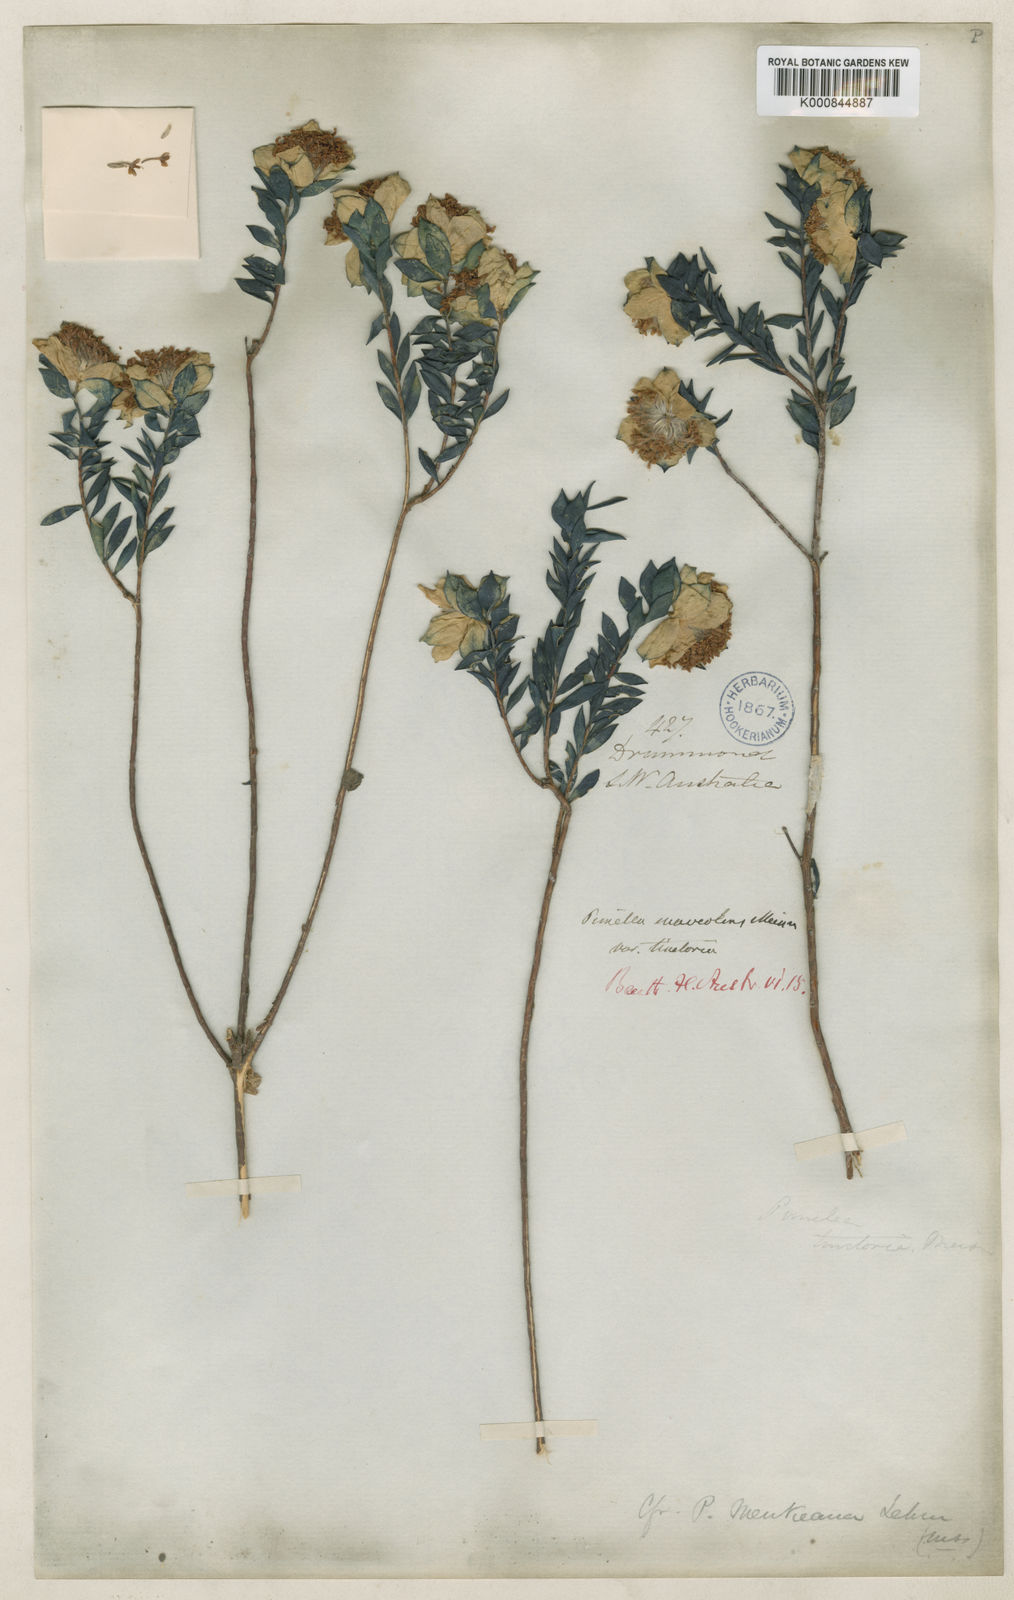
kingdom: Plantae
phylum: Tracheophyta
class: Magnoliopsida
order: Malvales
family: Thymelaeaceae
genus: Pimelea
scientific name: Pimelea tinctoria
